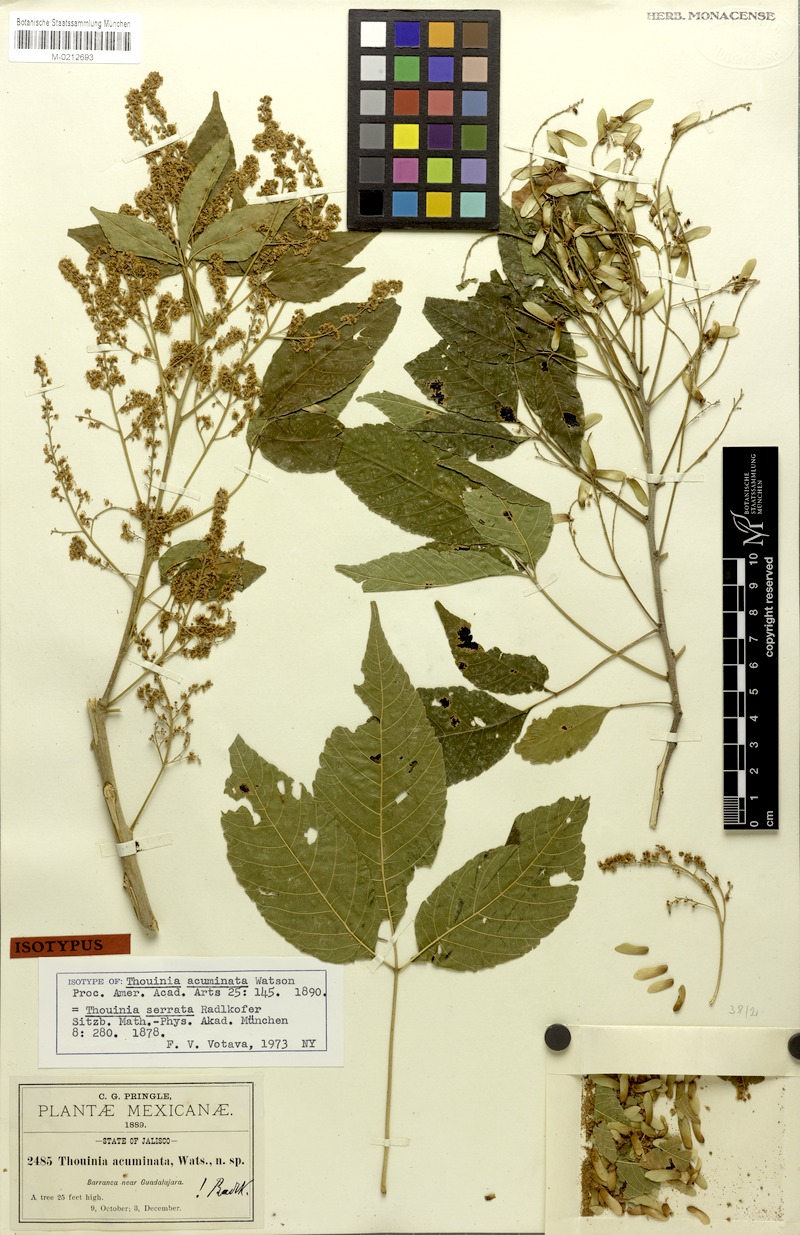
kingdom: Plantae
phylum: Tracheophyta
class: Magnoliopsida
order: Sapindales
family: Sapindaceae
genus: Thouinia
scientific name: Thouinia serrata
